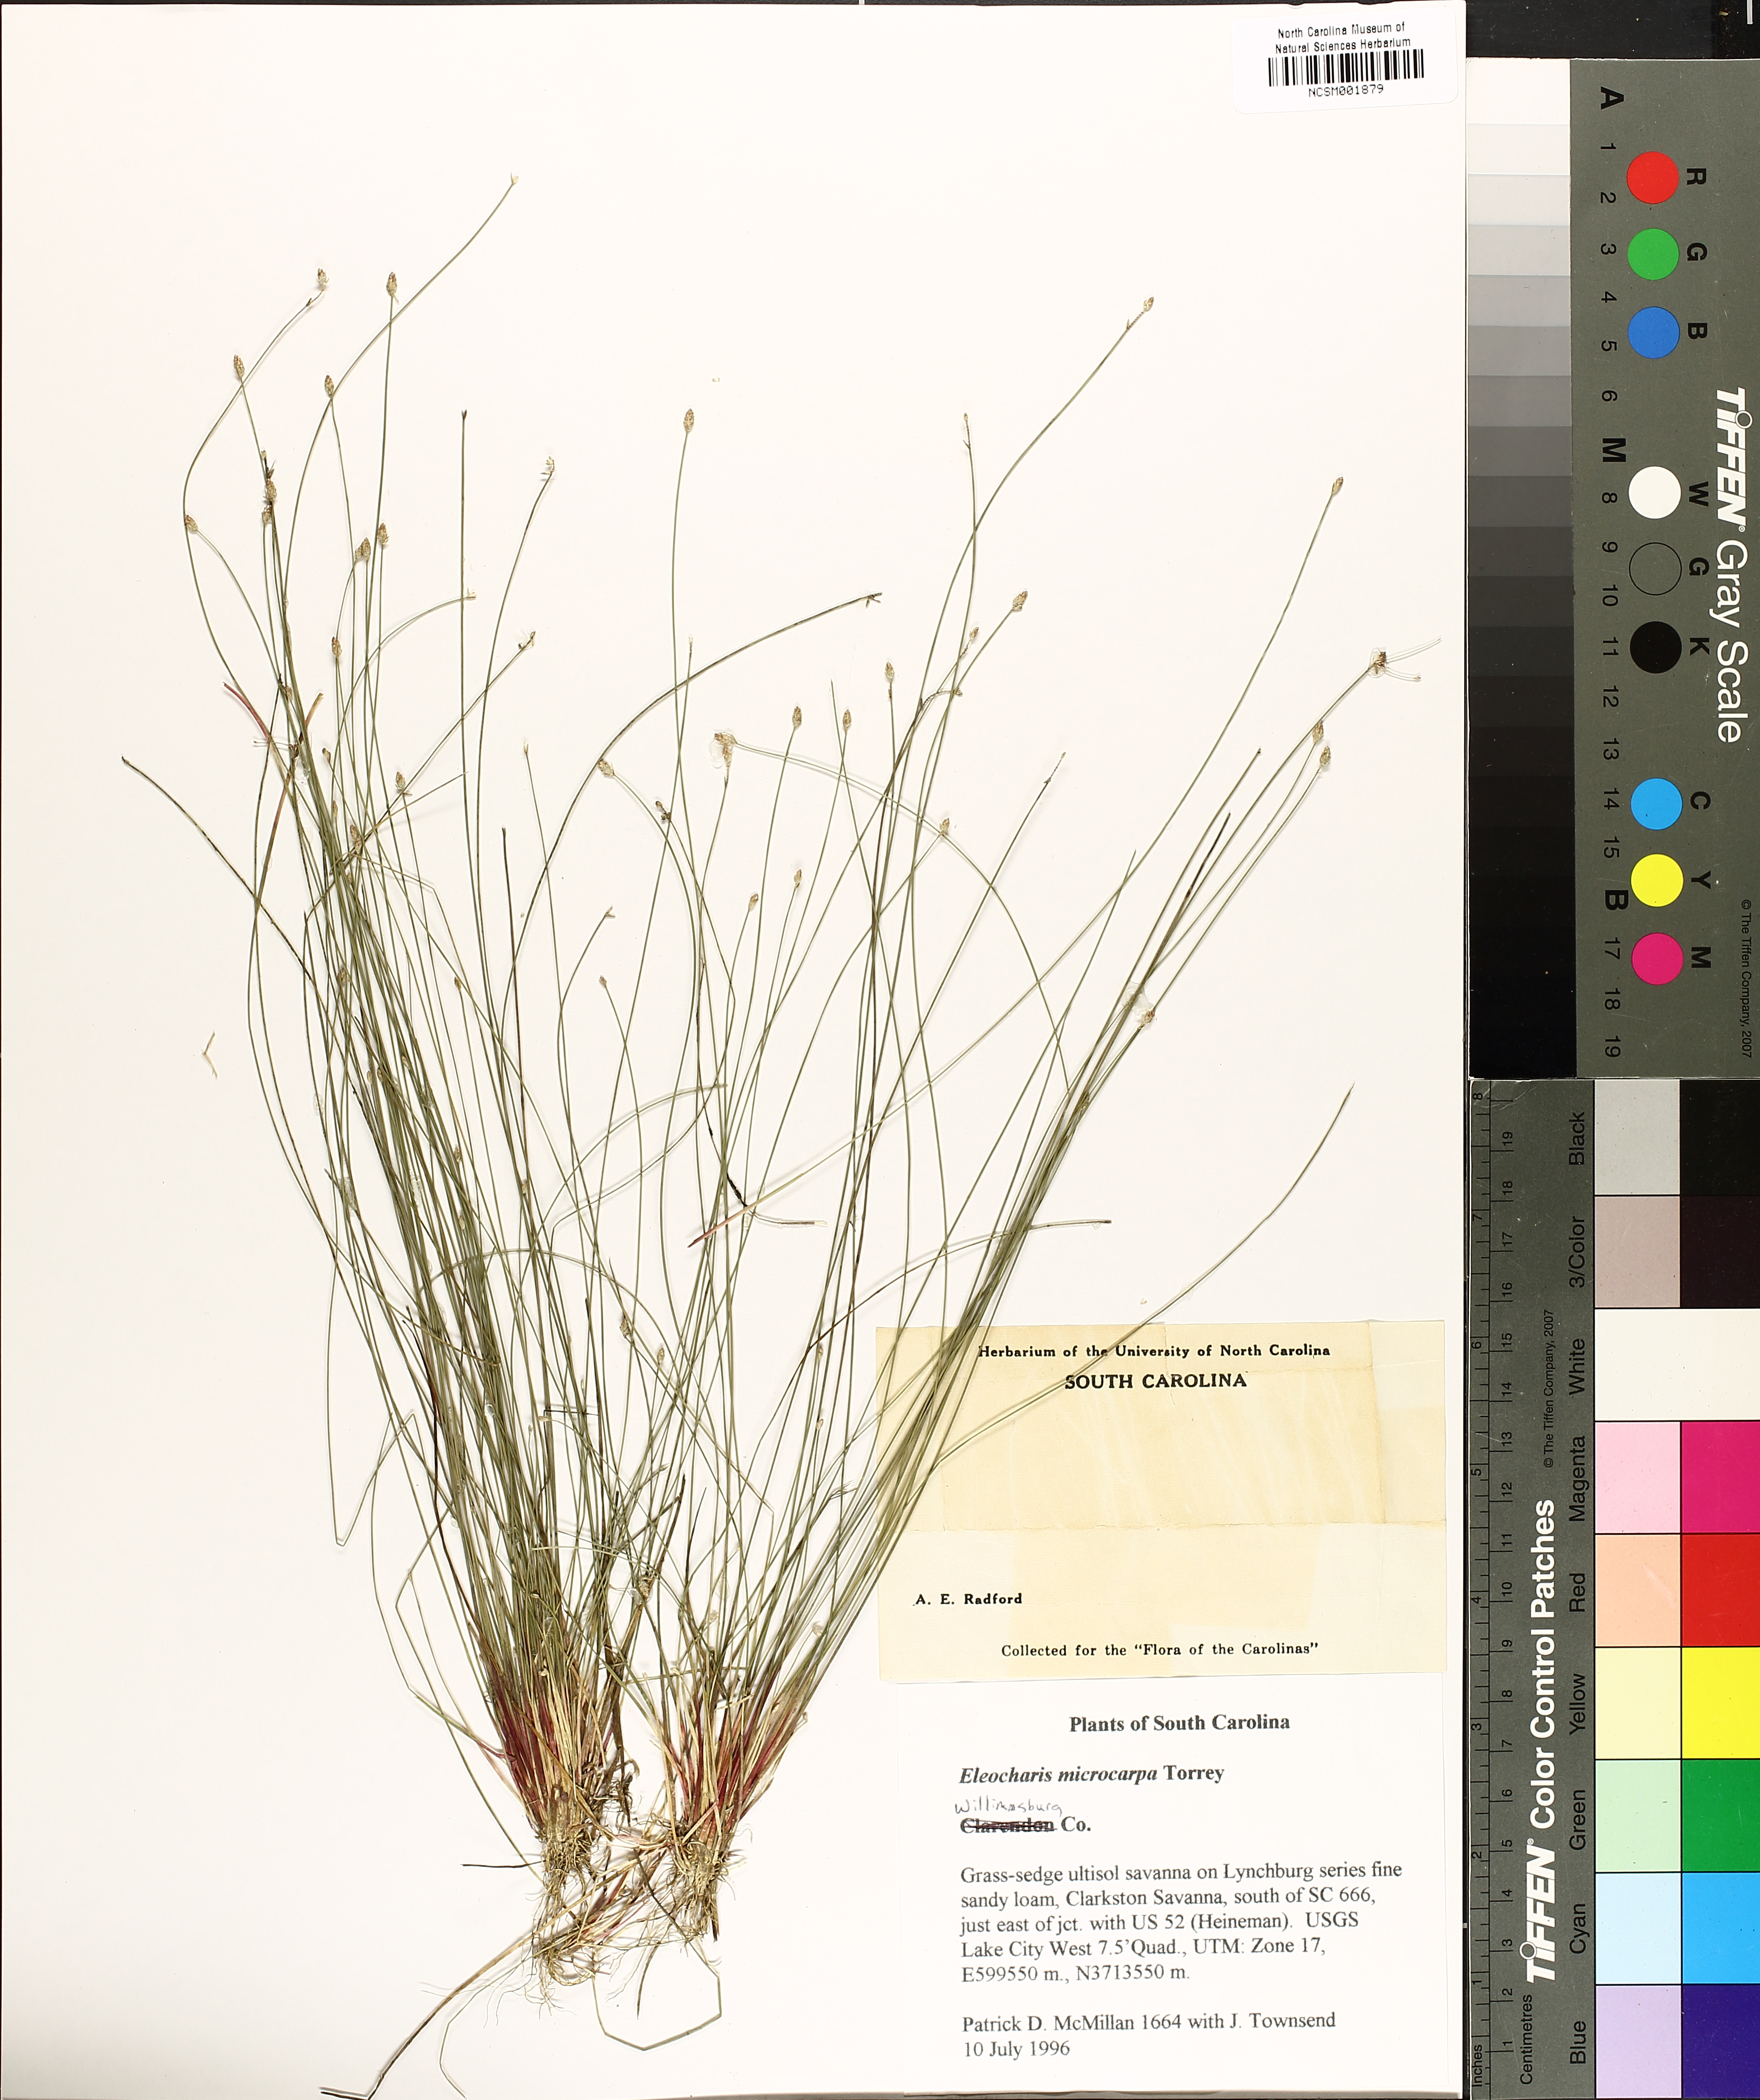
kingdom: Plantae
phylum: Tracheophyta
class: Liliopsida
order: Poales
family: Cyperaceae
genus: Eleocharis
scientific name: Eleocharis microcarpa
